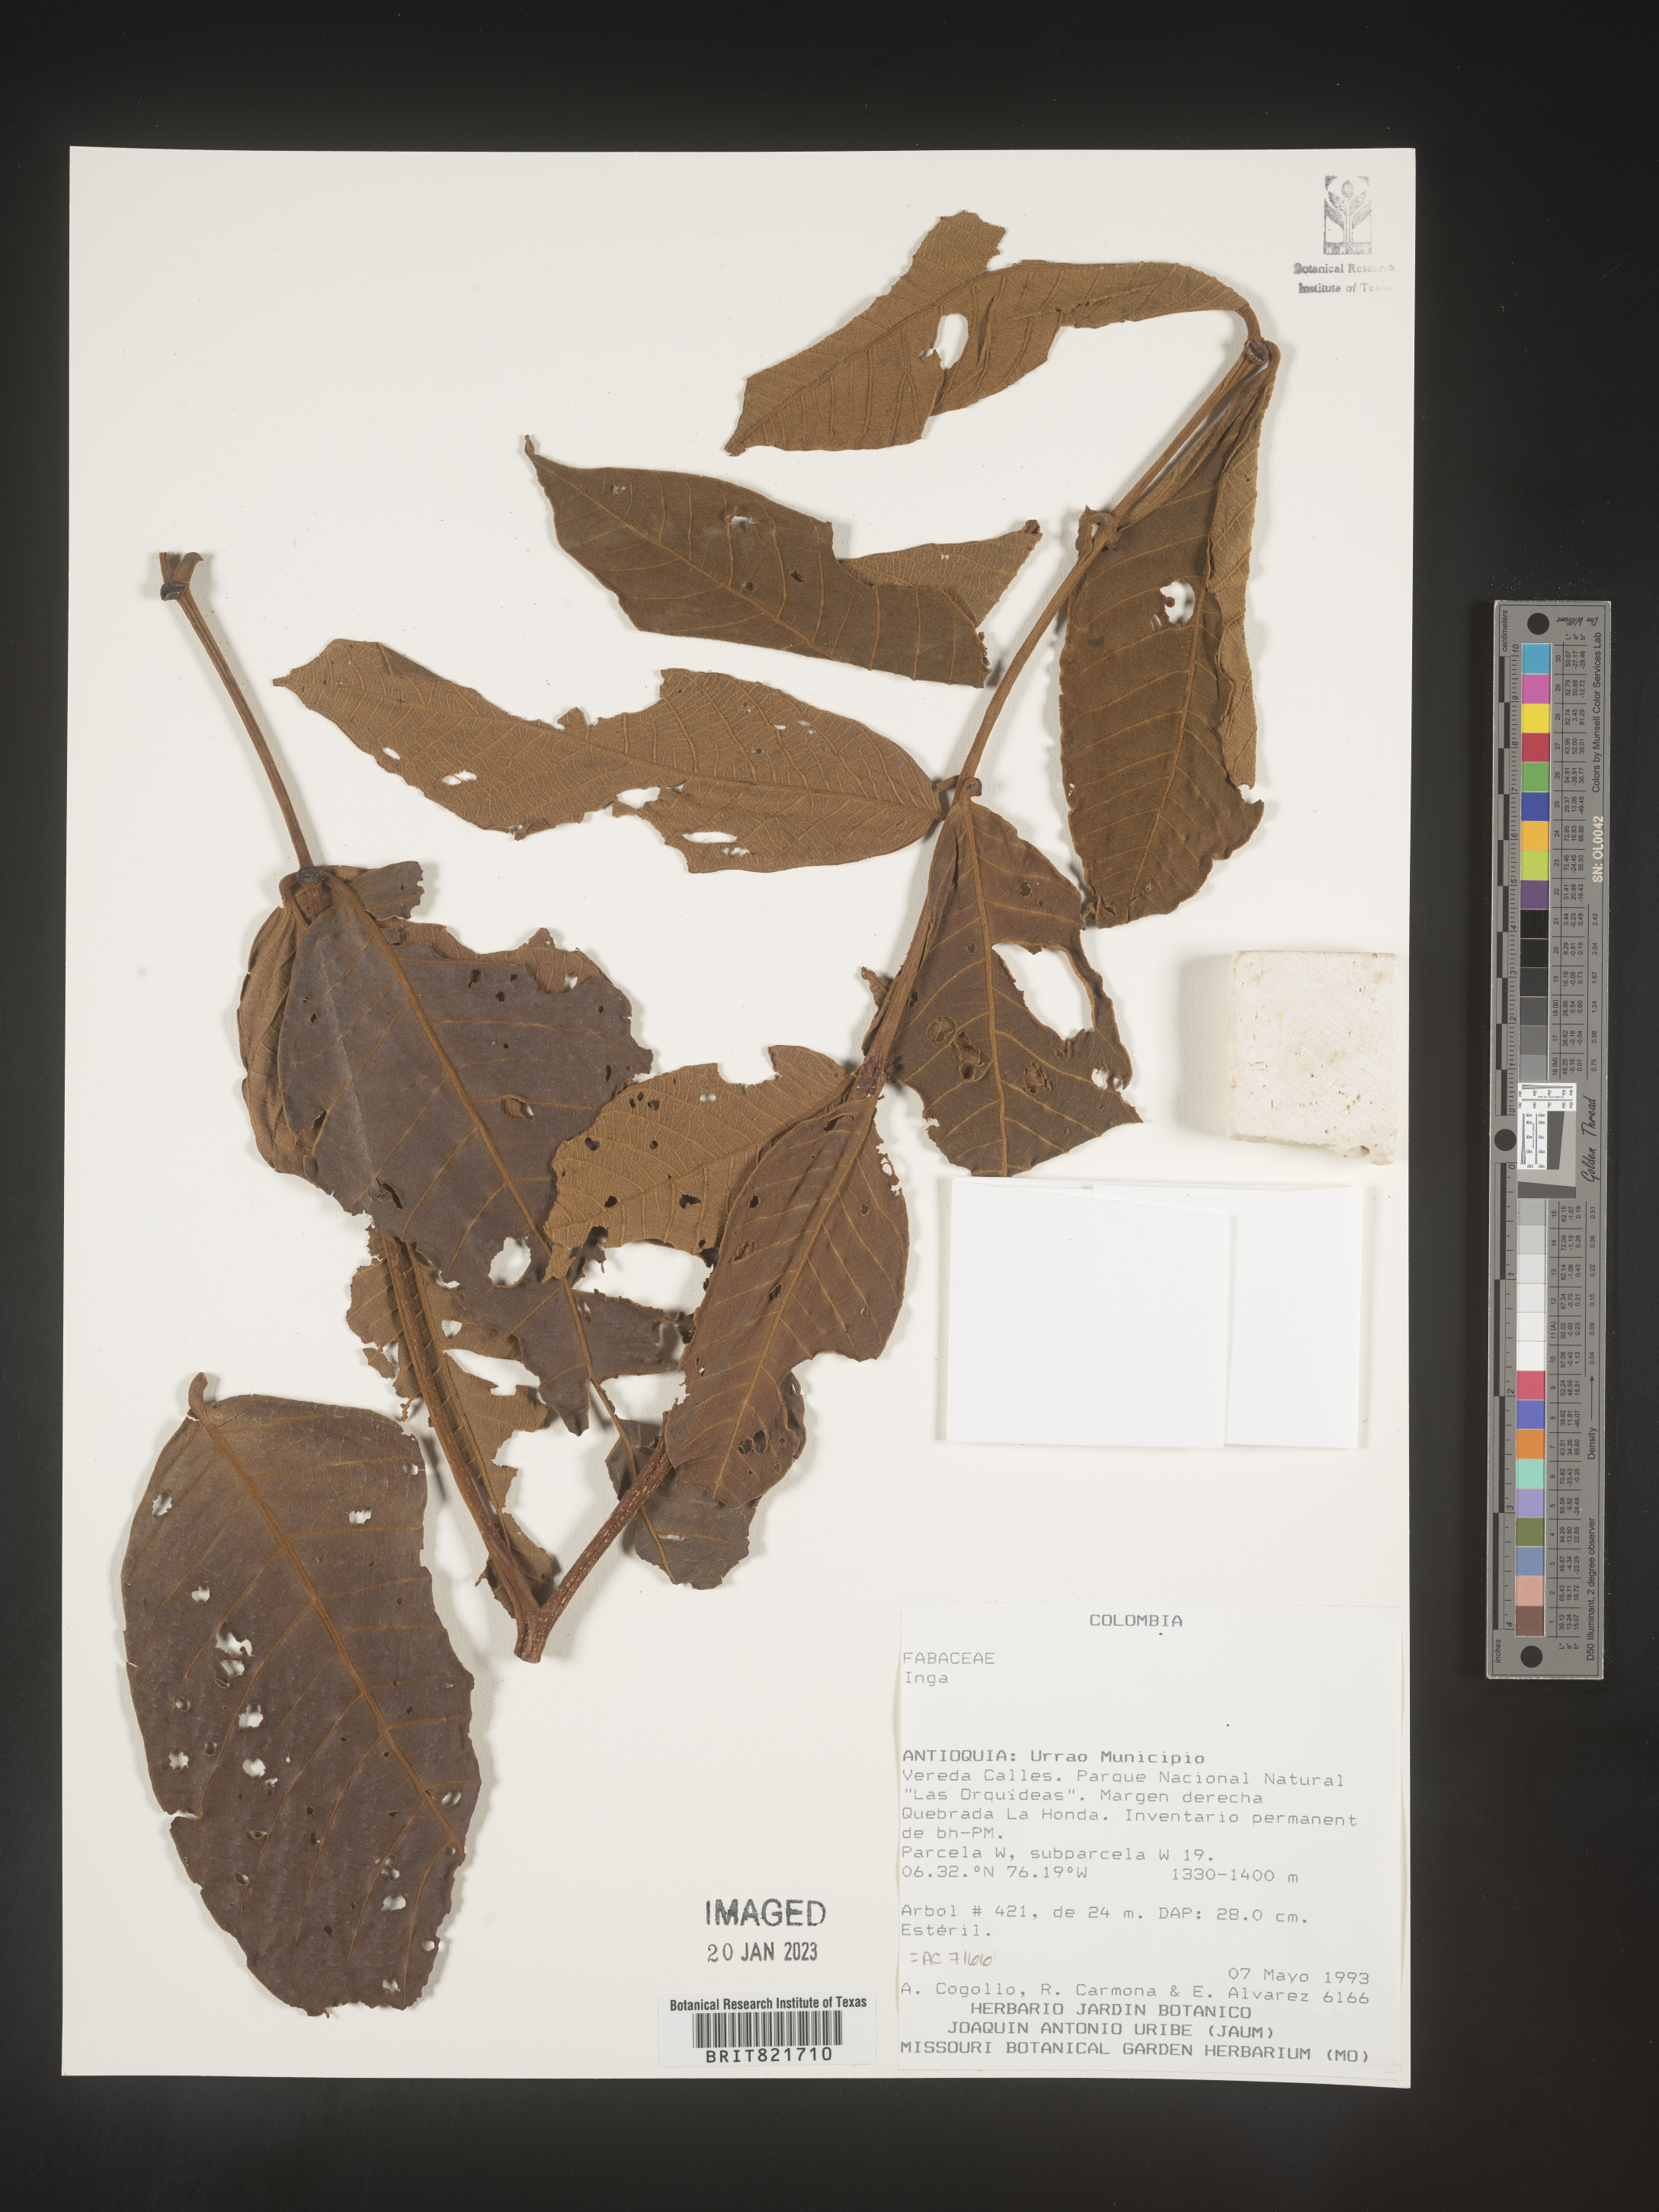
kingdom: Plantae
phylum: Tracheophyta
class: Magnoliopsida
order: Fabales
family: Fabaceae
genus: Inga
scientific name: Inga
